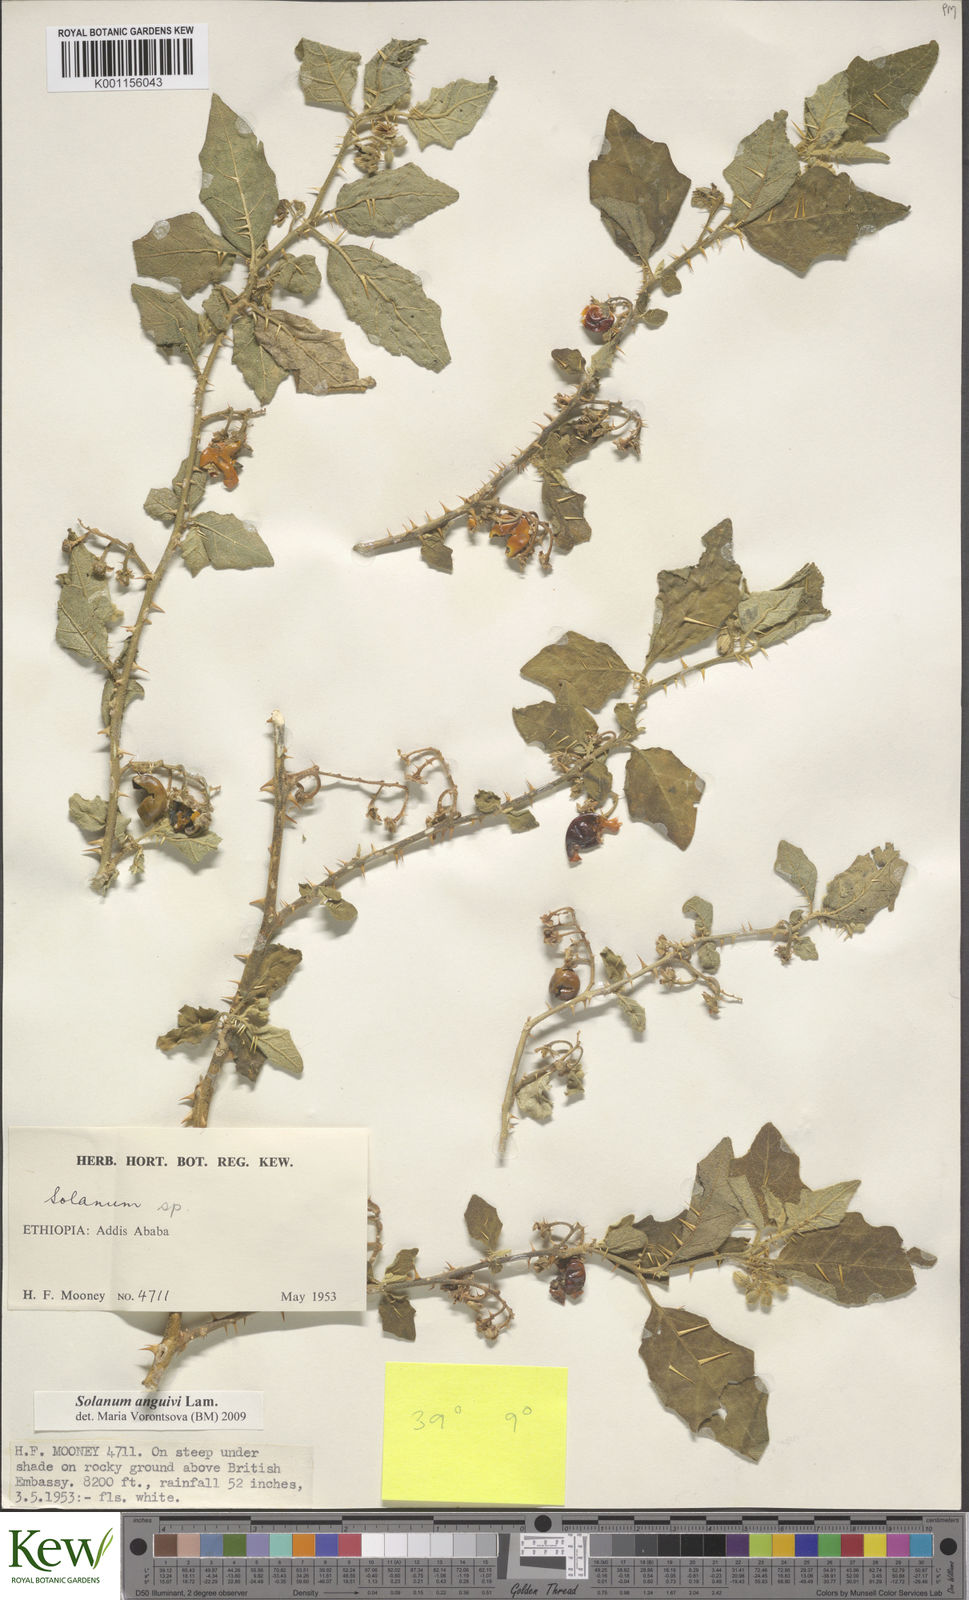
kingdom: Plantae
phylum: Tracheophyta
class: Magnoliopsida
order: Solanales
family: Solanaceae
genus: Solanum
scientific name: Solanum anguivi
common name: Forest bitterberry
